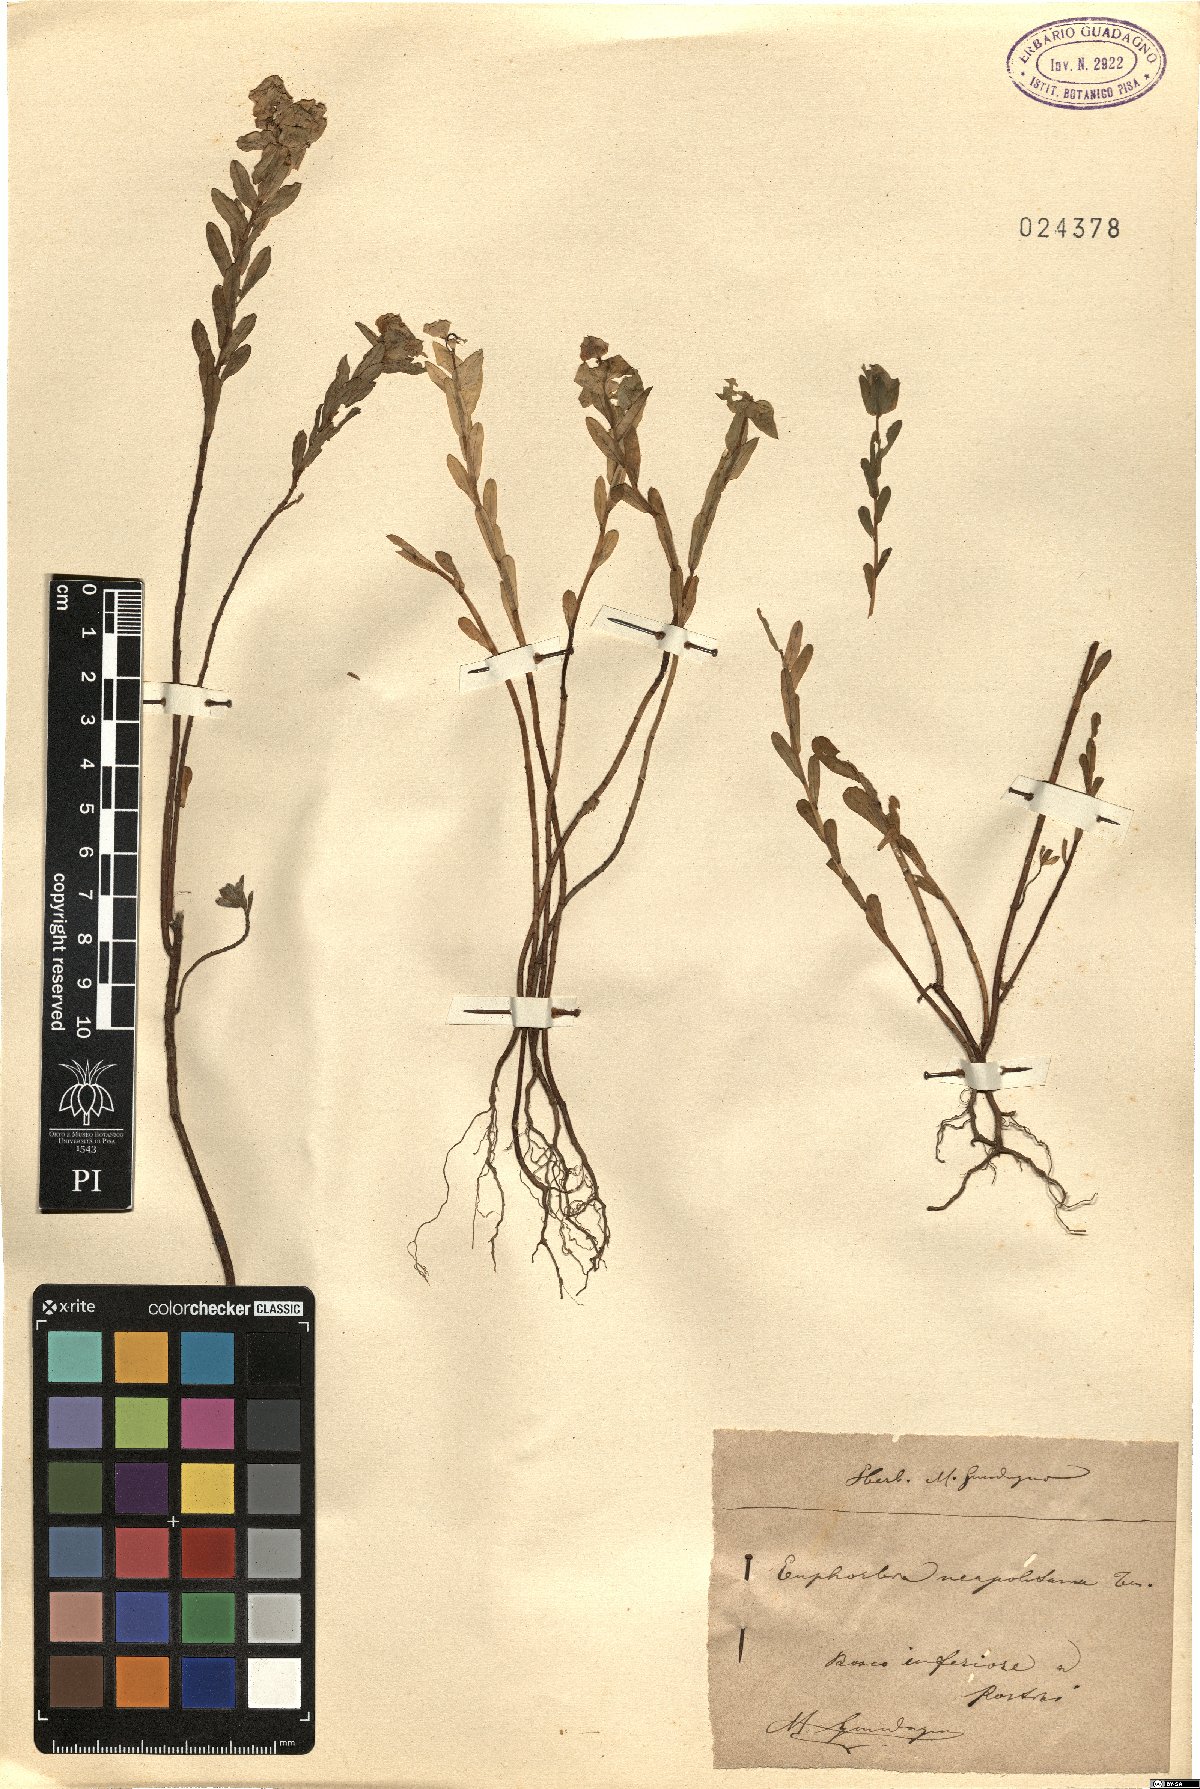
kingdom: Plantae
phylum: Tracheophyta
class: Magnoliopsida
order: Malpighiales
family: Euphorbiaceae
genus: Euphorbia
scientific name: Euphorbia terracina
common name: Geraldton carnation weed
